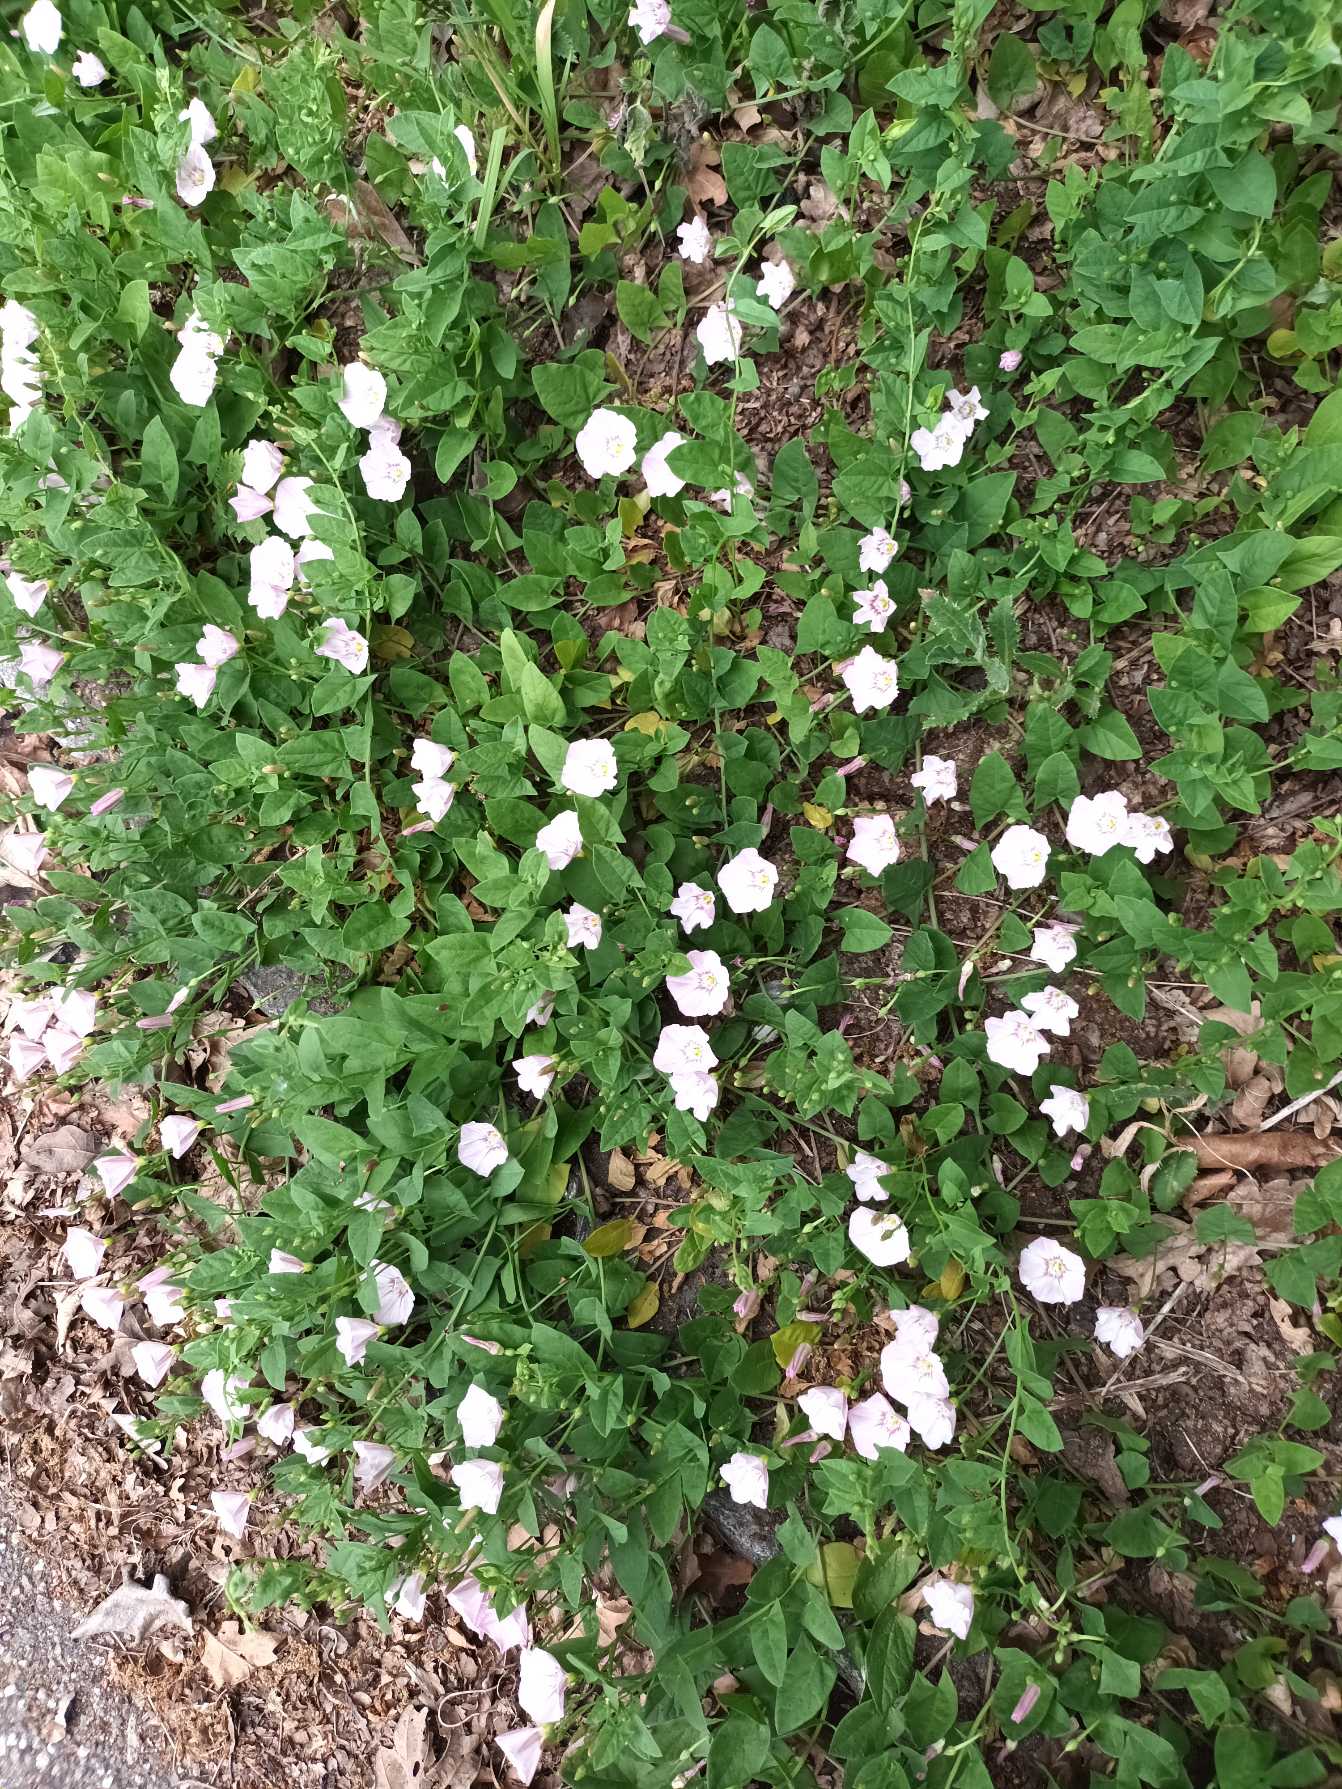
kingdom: Plantae
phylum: Tracheophyta
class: Magnoliopsida
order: Solanales
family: Convolvulaceae
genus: Convolvulus
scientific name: Convolvulus arvensis
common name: Ager-snerle
